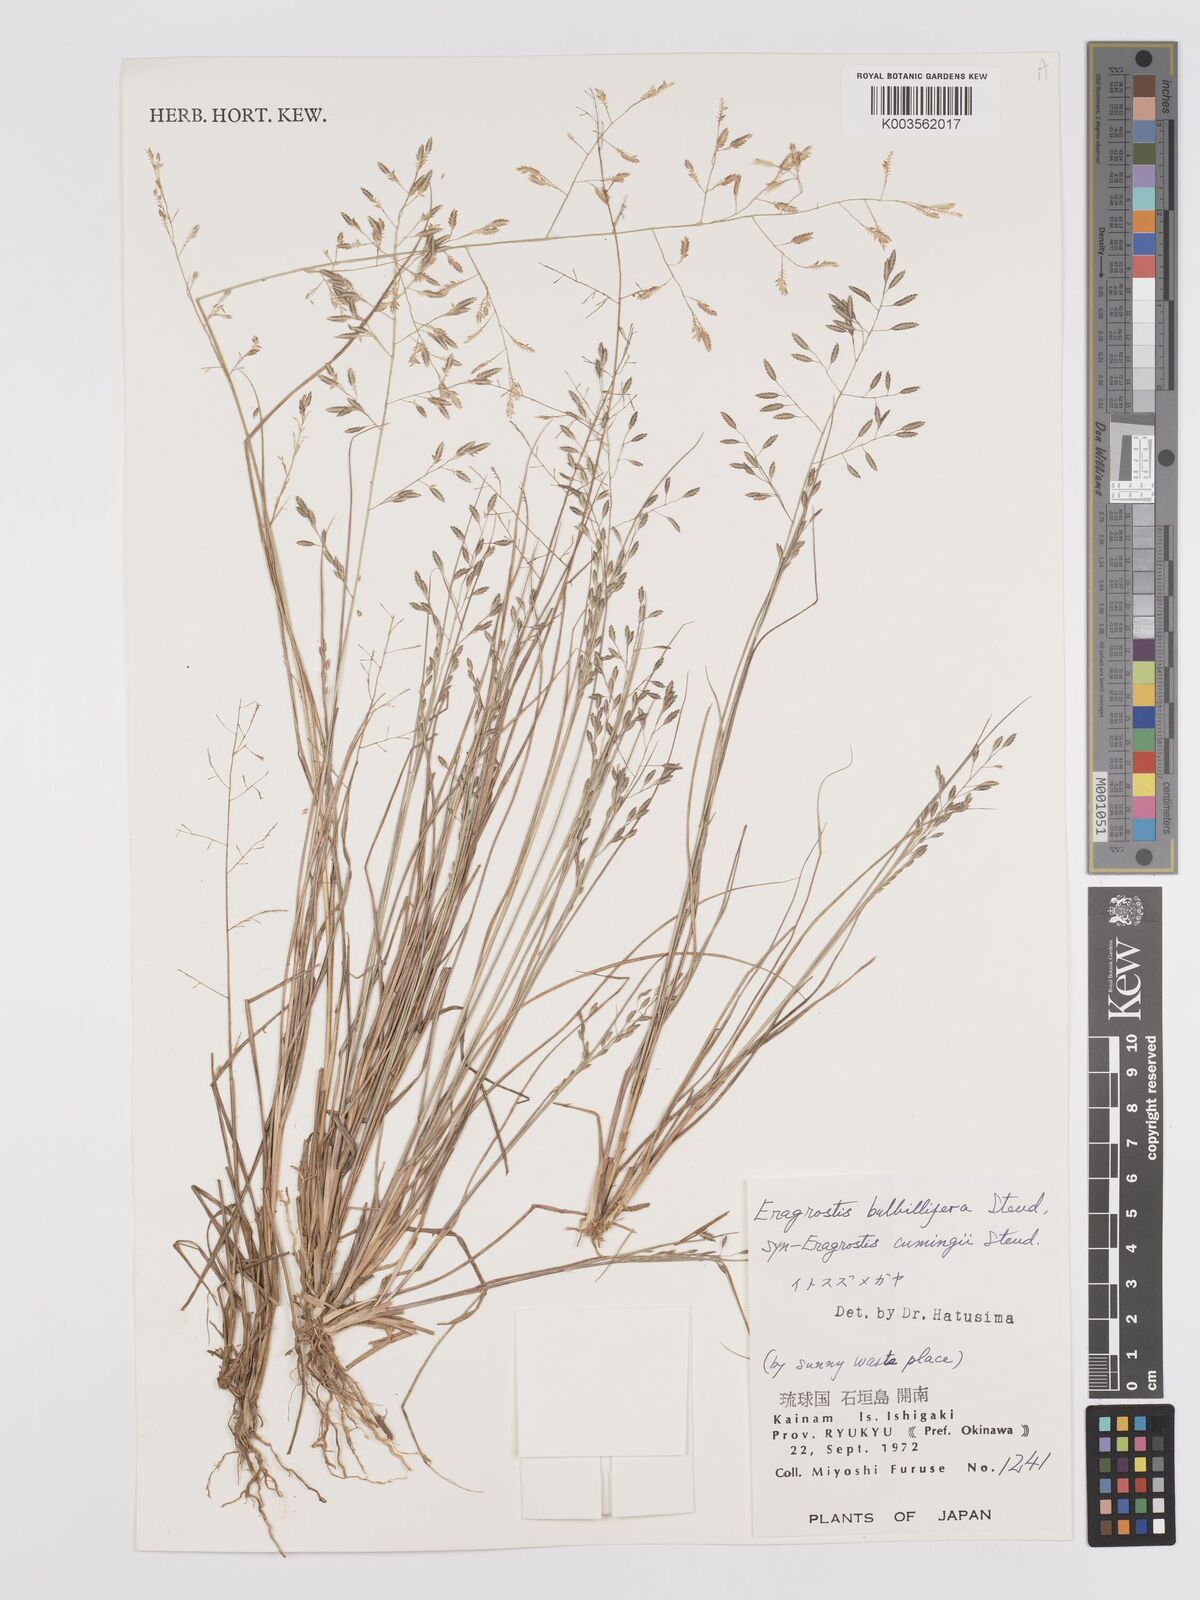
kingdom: Plantae
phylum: Tracheophyta
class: Liliopsida
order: Poales
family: Poaceae
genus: Eragrostis
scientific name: Eragrostis cumingii
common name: Cuming's lovegrass
